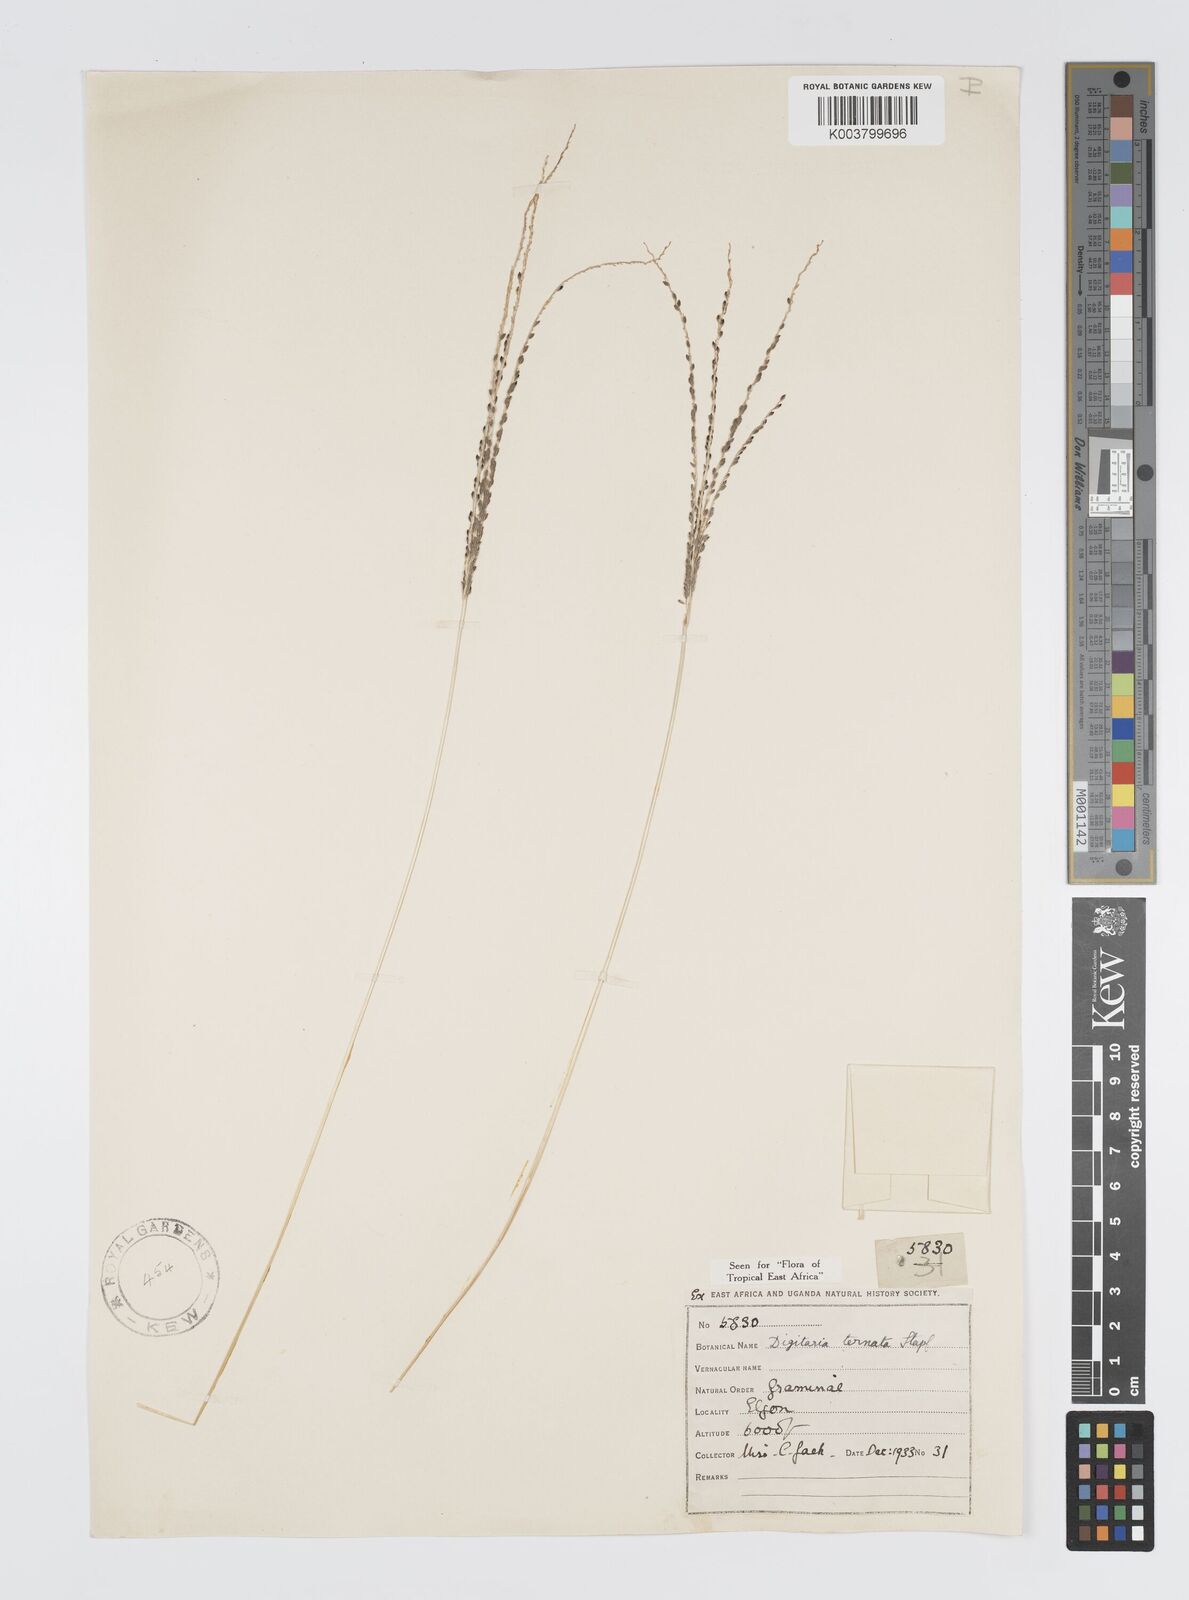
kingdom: Plantae
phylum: Tracheophyta
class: Liliopsida
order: Poales
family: Poaceae
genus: Digitaria
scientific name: Digitaria ternata
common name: Blackseed crabgrass
